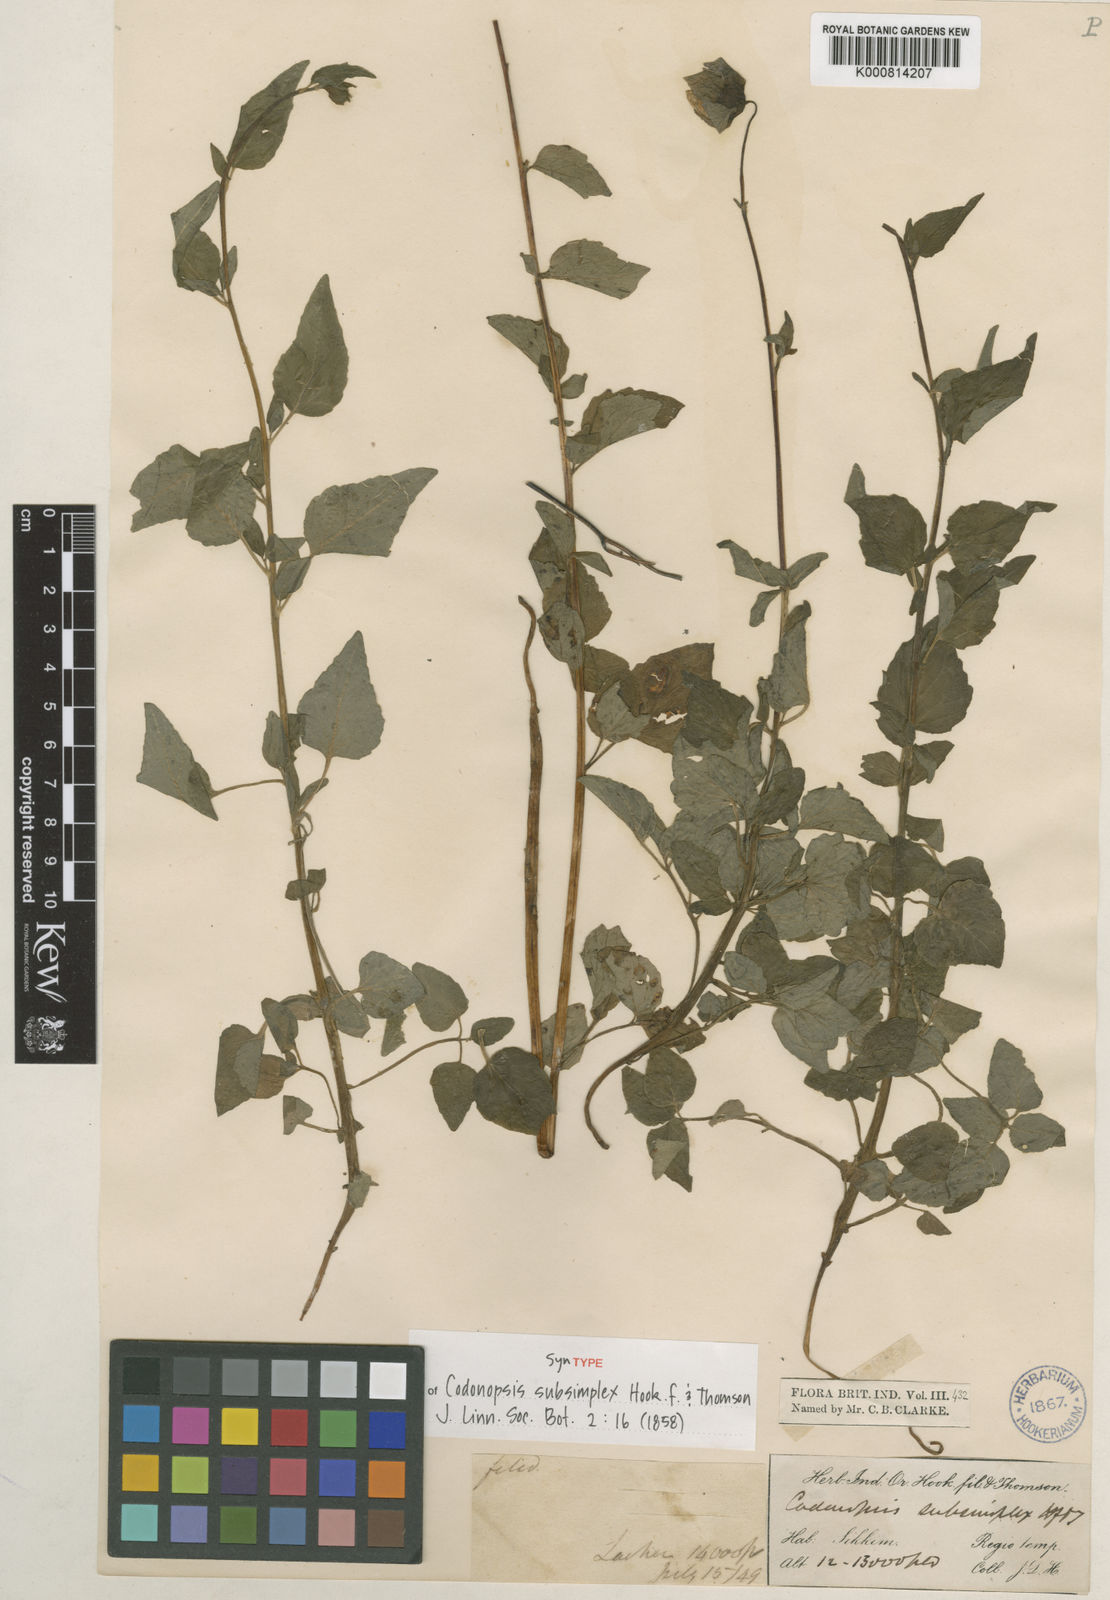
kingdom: Plantae
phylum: Tracheophyta
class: Magnoliopsida
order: Asterales
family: Campanulaceae
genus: Codonopsis
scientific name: Codonopsis subsimplex
